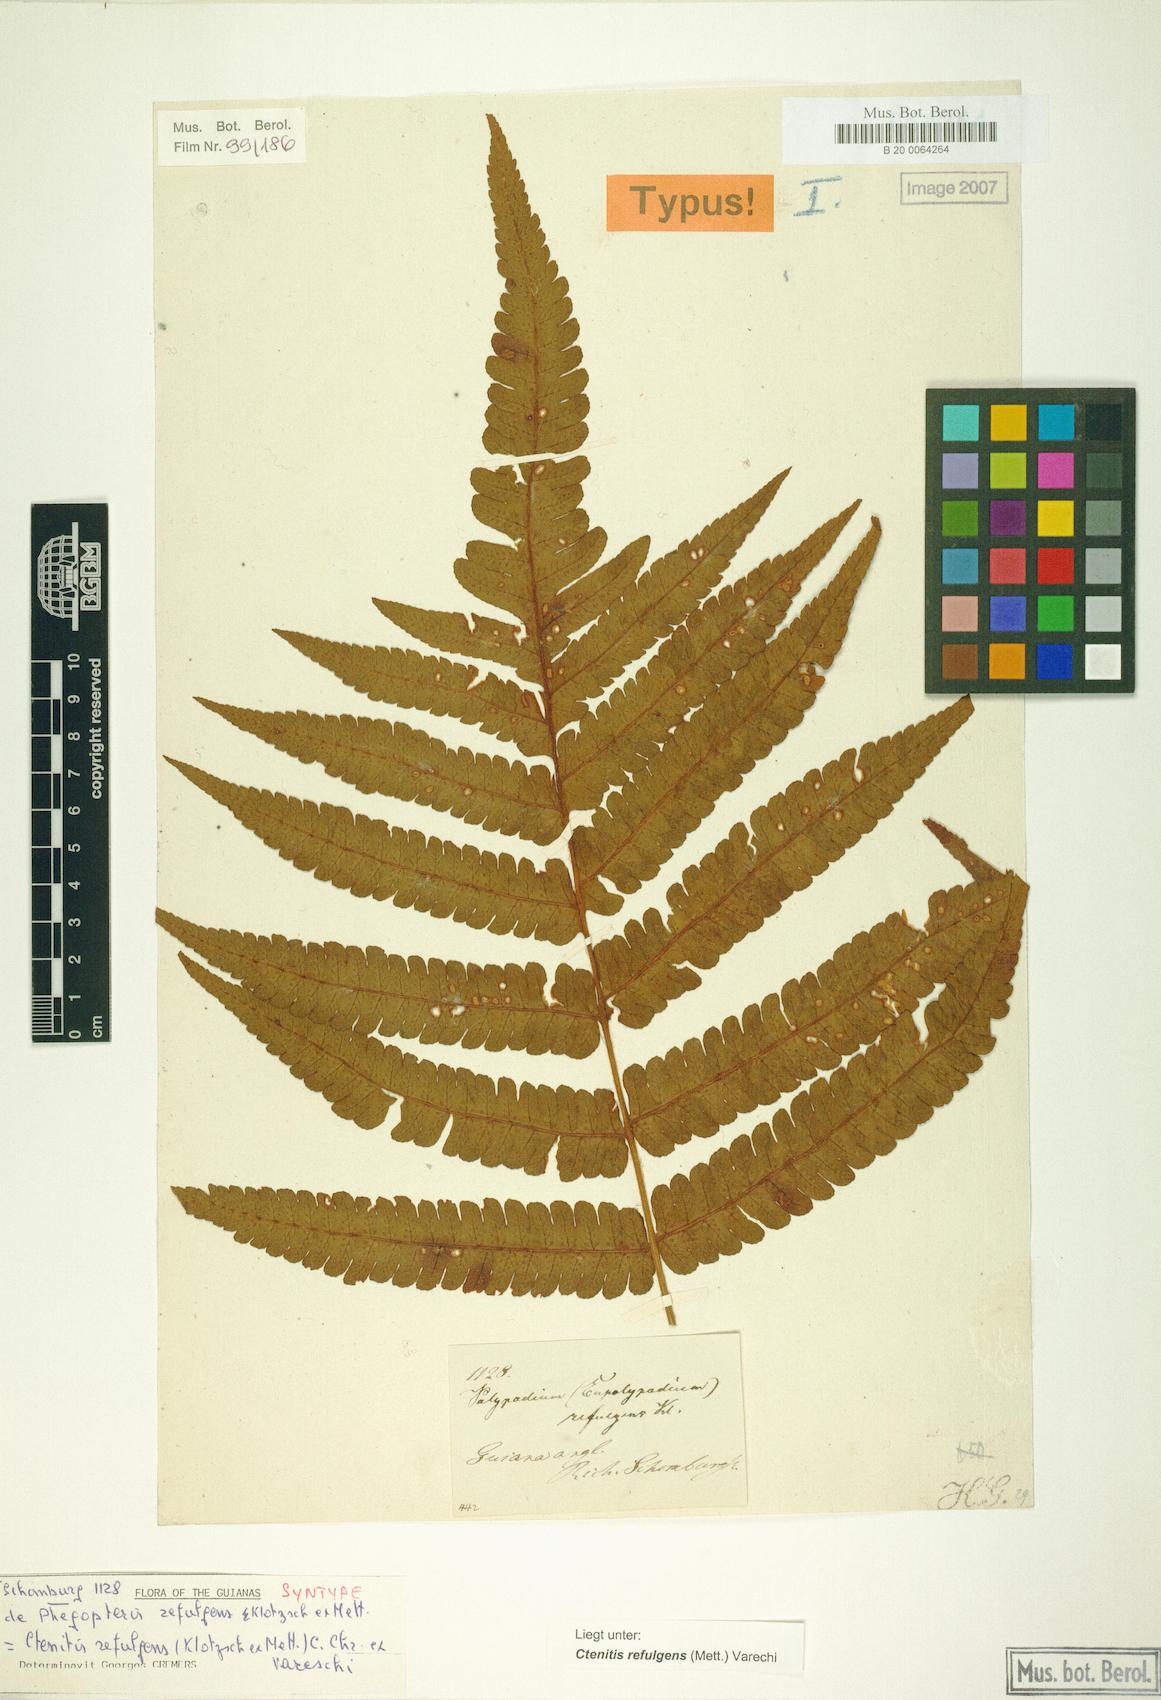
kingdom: Plantae
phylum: Tracheophyta
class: Polypodiopsida
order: Polypodiales
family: Dryopteridaceae
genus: Ctenitis
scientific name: Ctenitis refulgens
